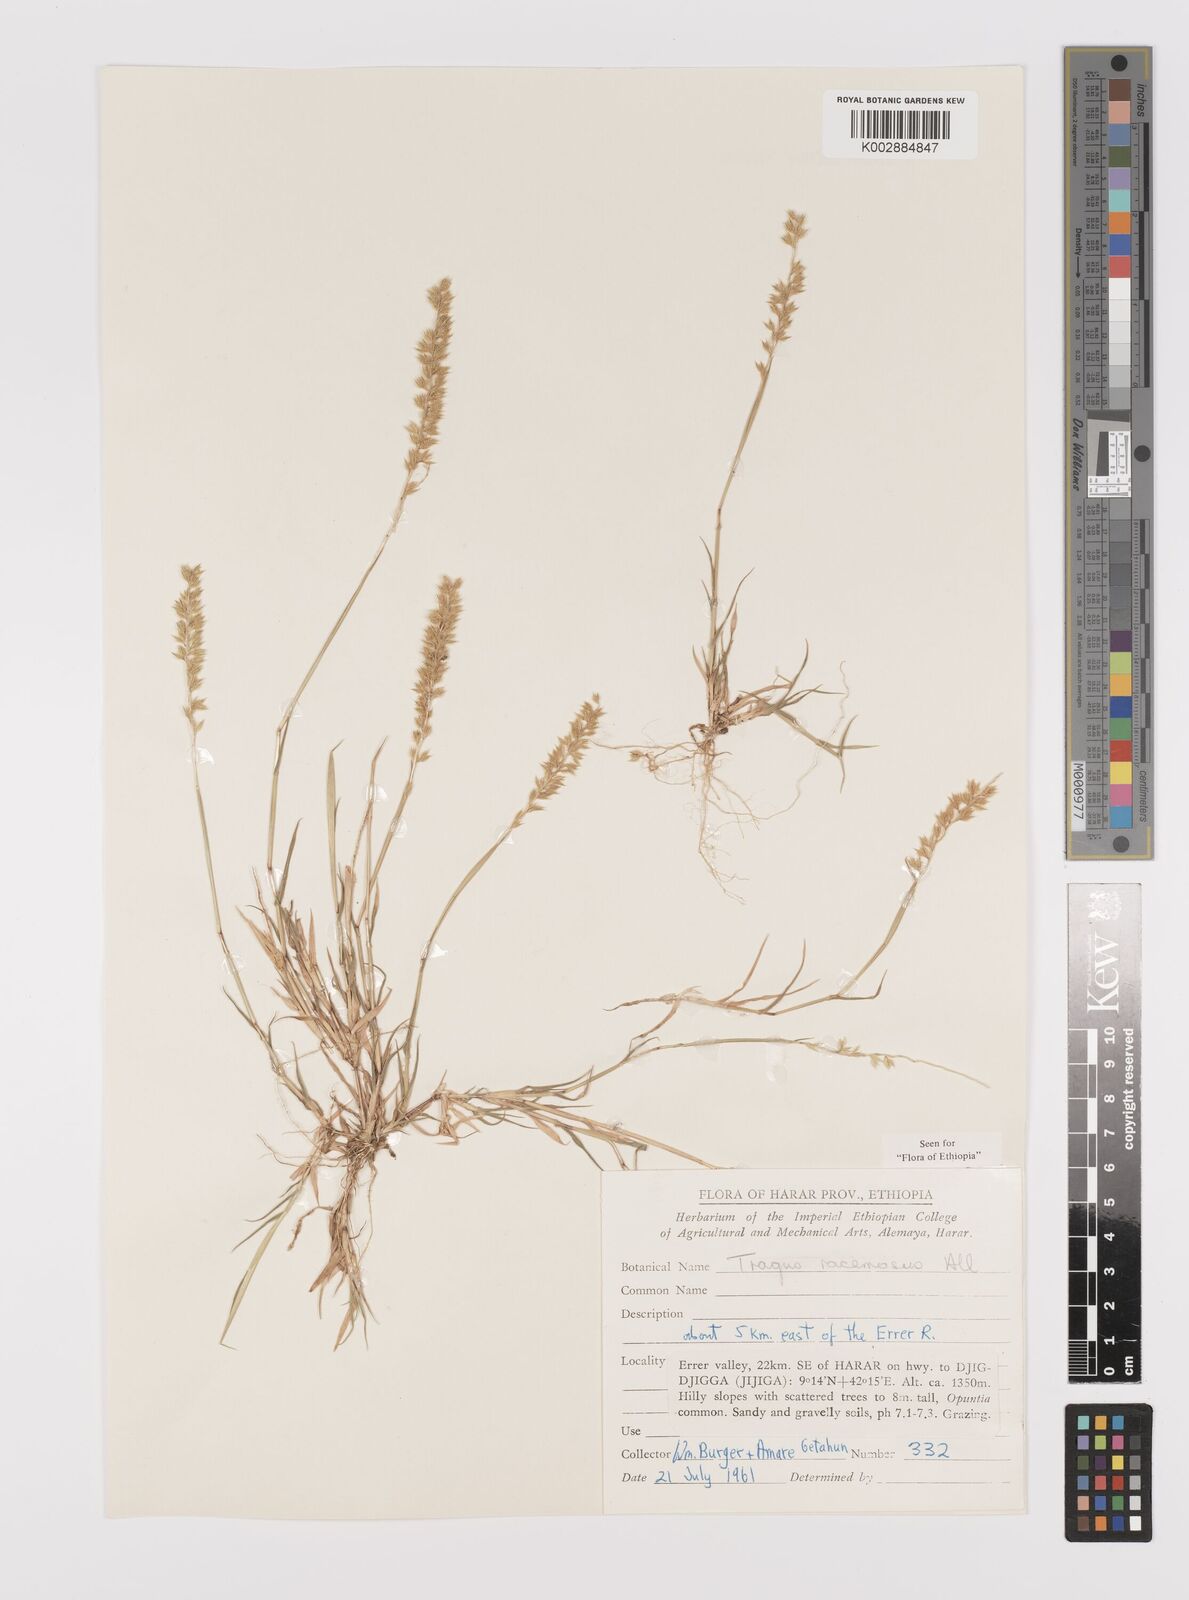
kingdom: Plantae
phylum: Tracheophyta
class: Liliopsida
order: Poales
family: Poaceae
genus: Tragus
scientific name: Tragus racemosus
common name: European bur-grass
